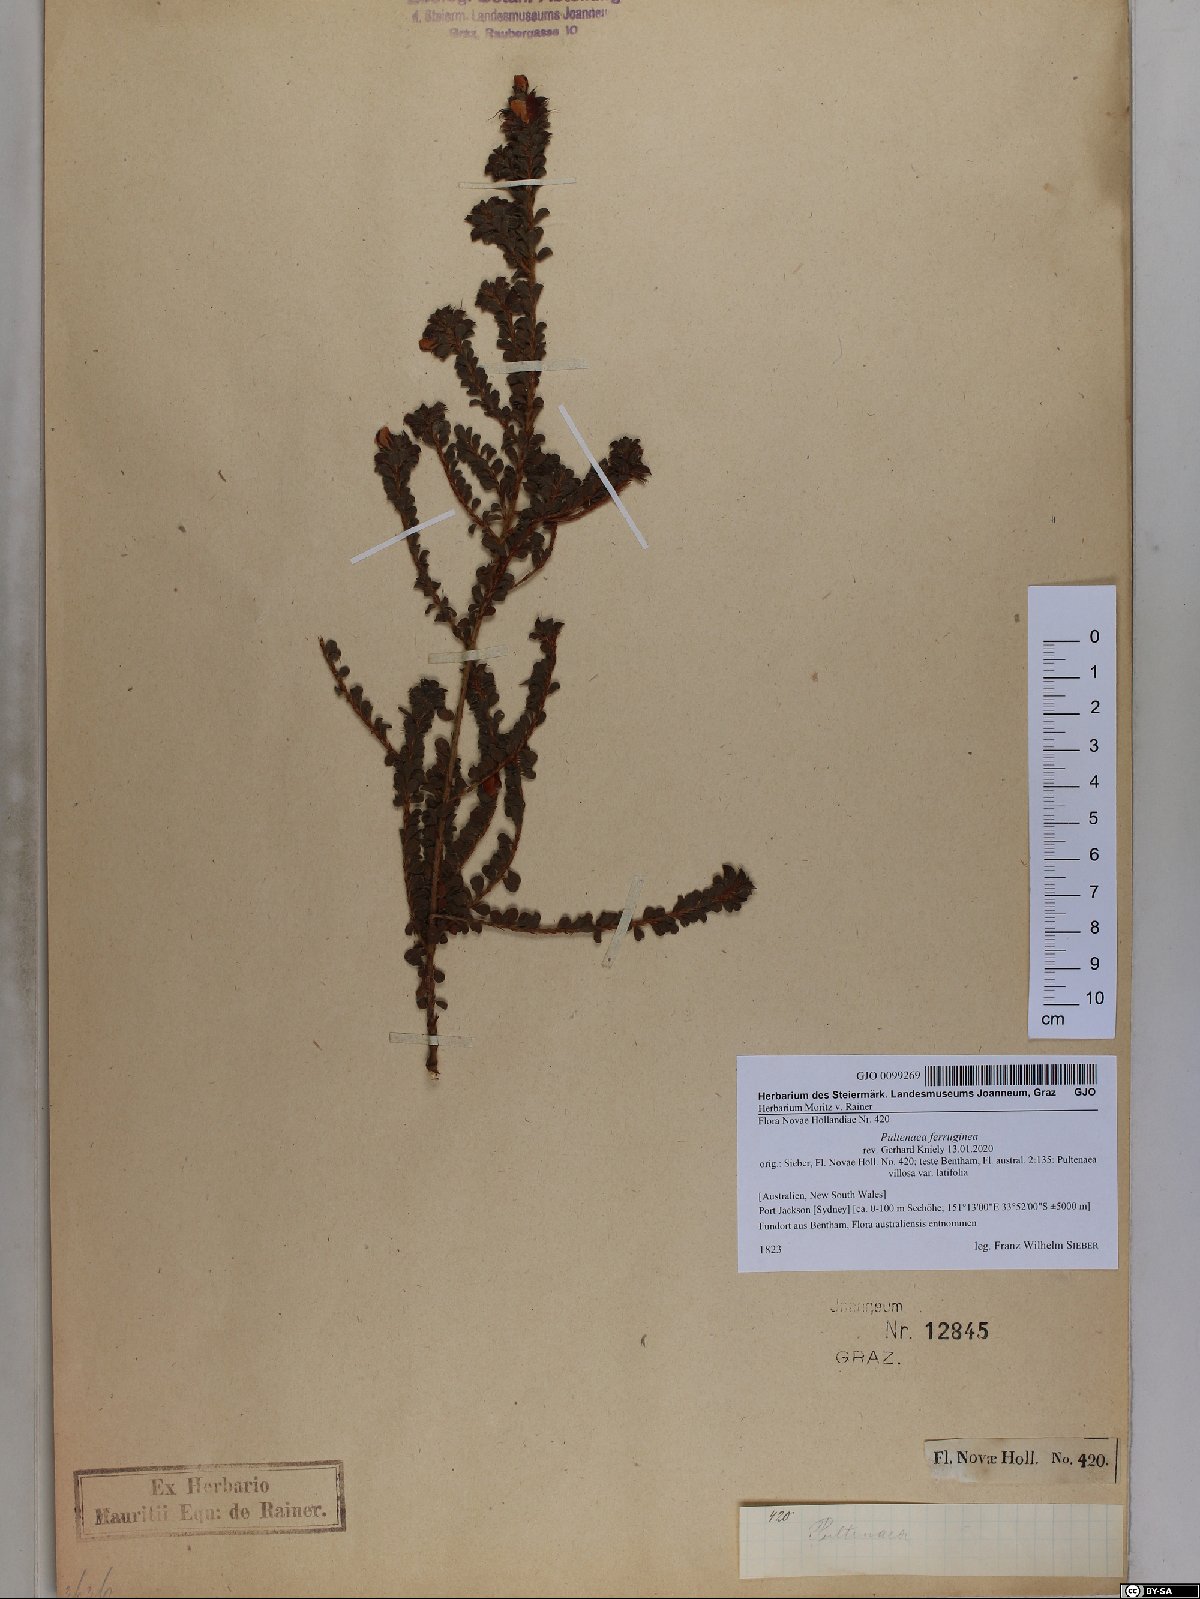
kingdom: Plantae
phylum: Tracheophyta
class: Magnoliopsida
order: Fabales
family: Fabaceae
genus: Pultenaea
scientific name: Pultenaea ferruginea
